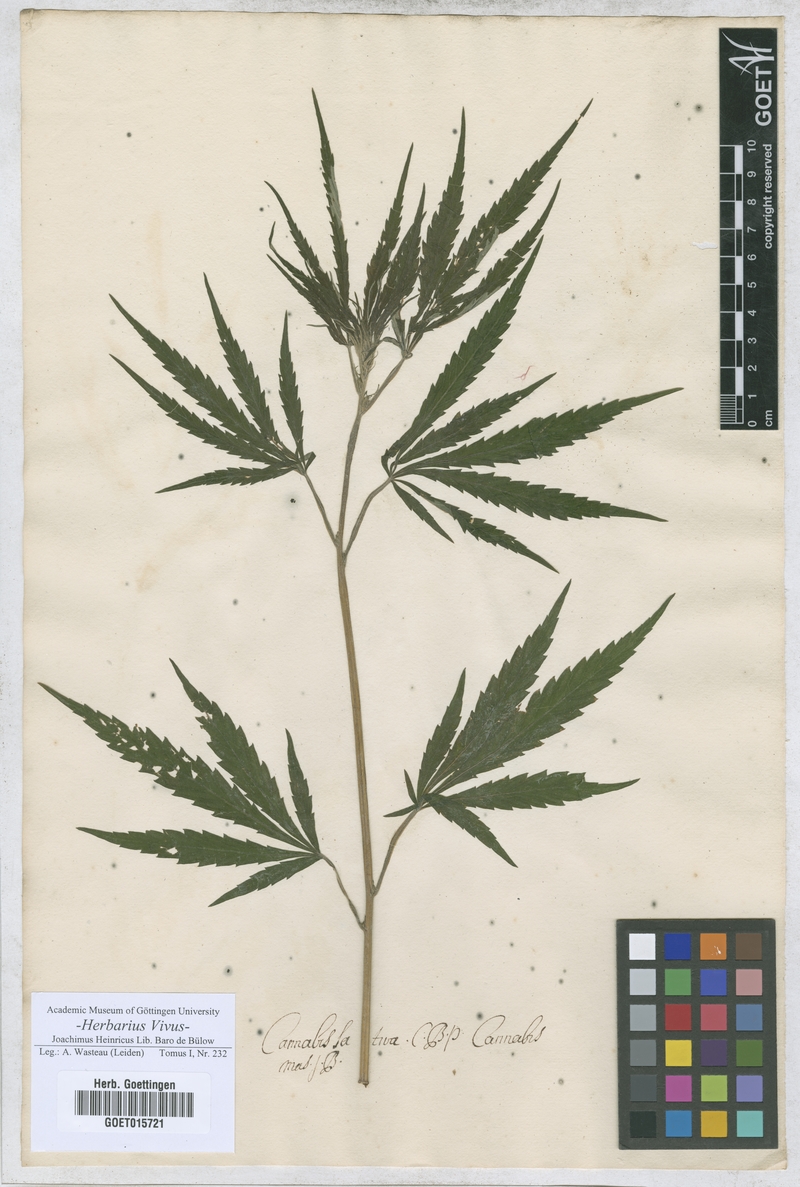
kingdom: Plantae
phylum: Tracheophyta
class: Magnoliopsida
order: Rosales
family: Cannabaceae
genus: Cannabis
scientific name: Cannabis sativa
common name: Hemp
